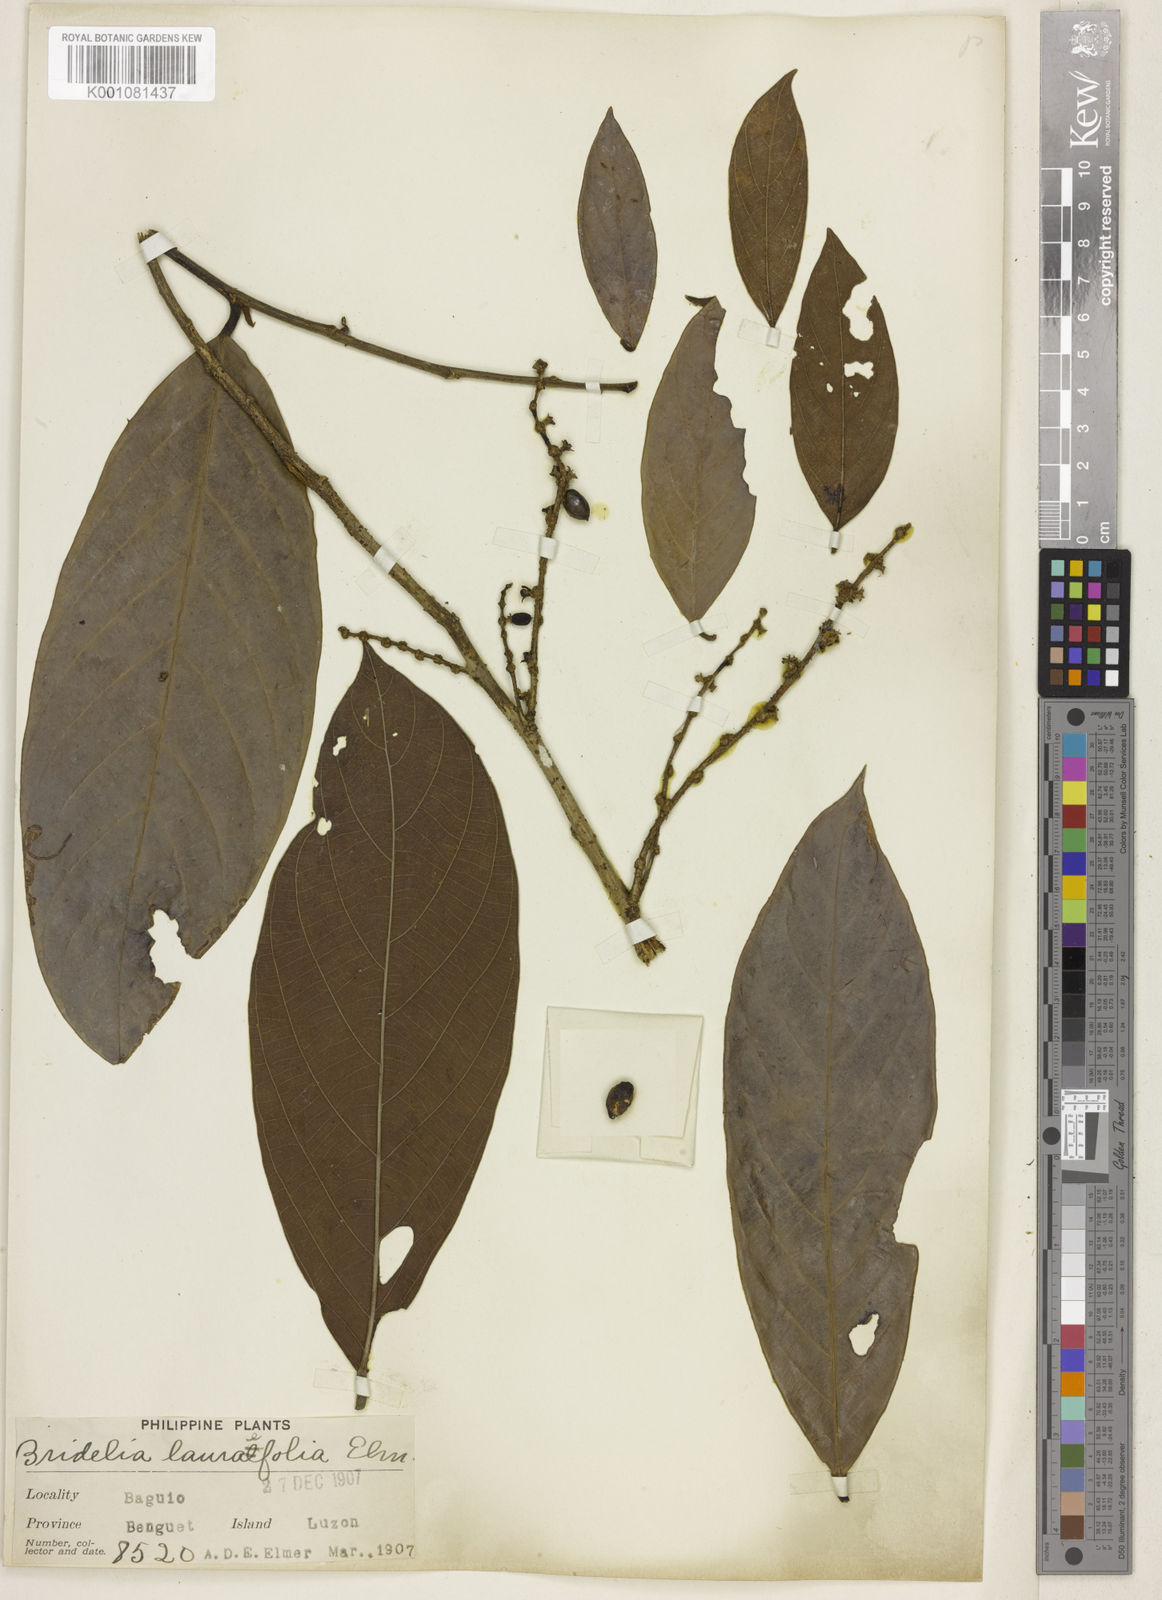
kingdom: Plantae
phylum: Tracheophyta
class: Magnoliopsida
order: Malpighiales
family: Phyllanthaceae
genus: Bridelia
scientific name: Bridelia glauca
